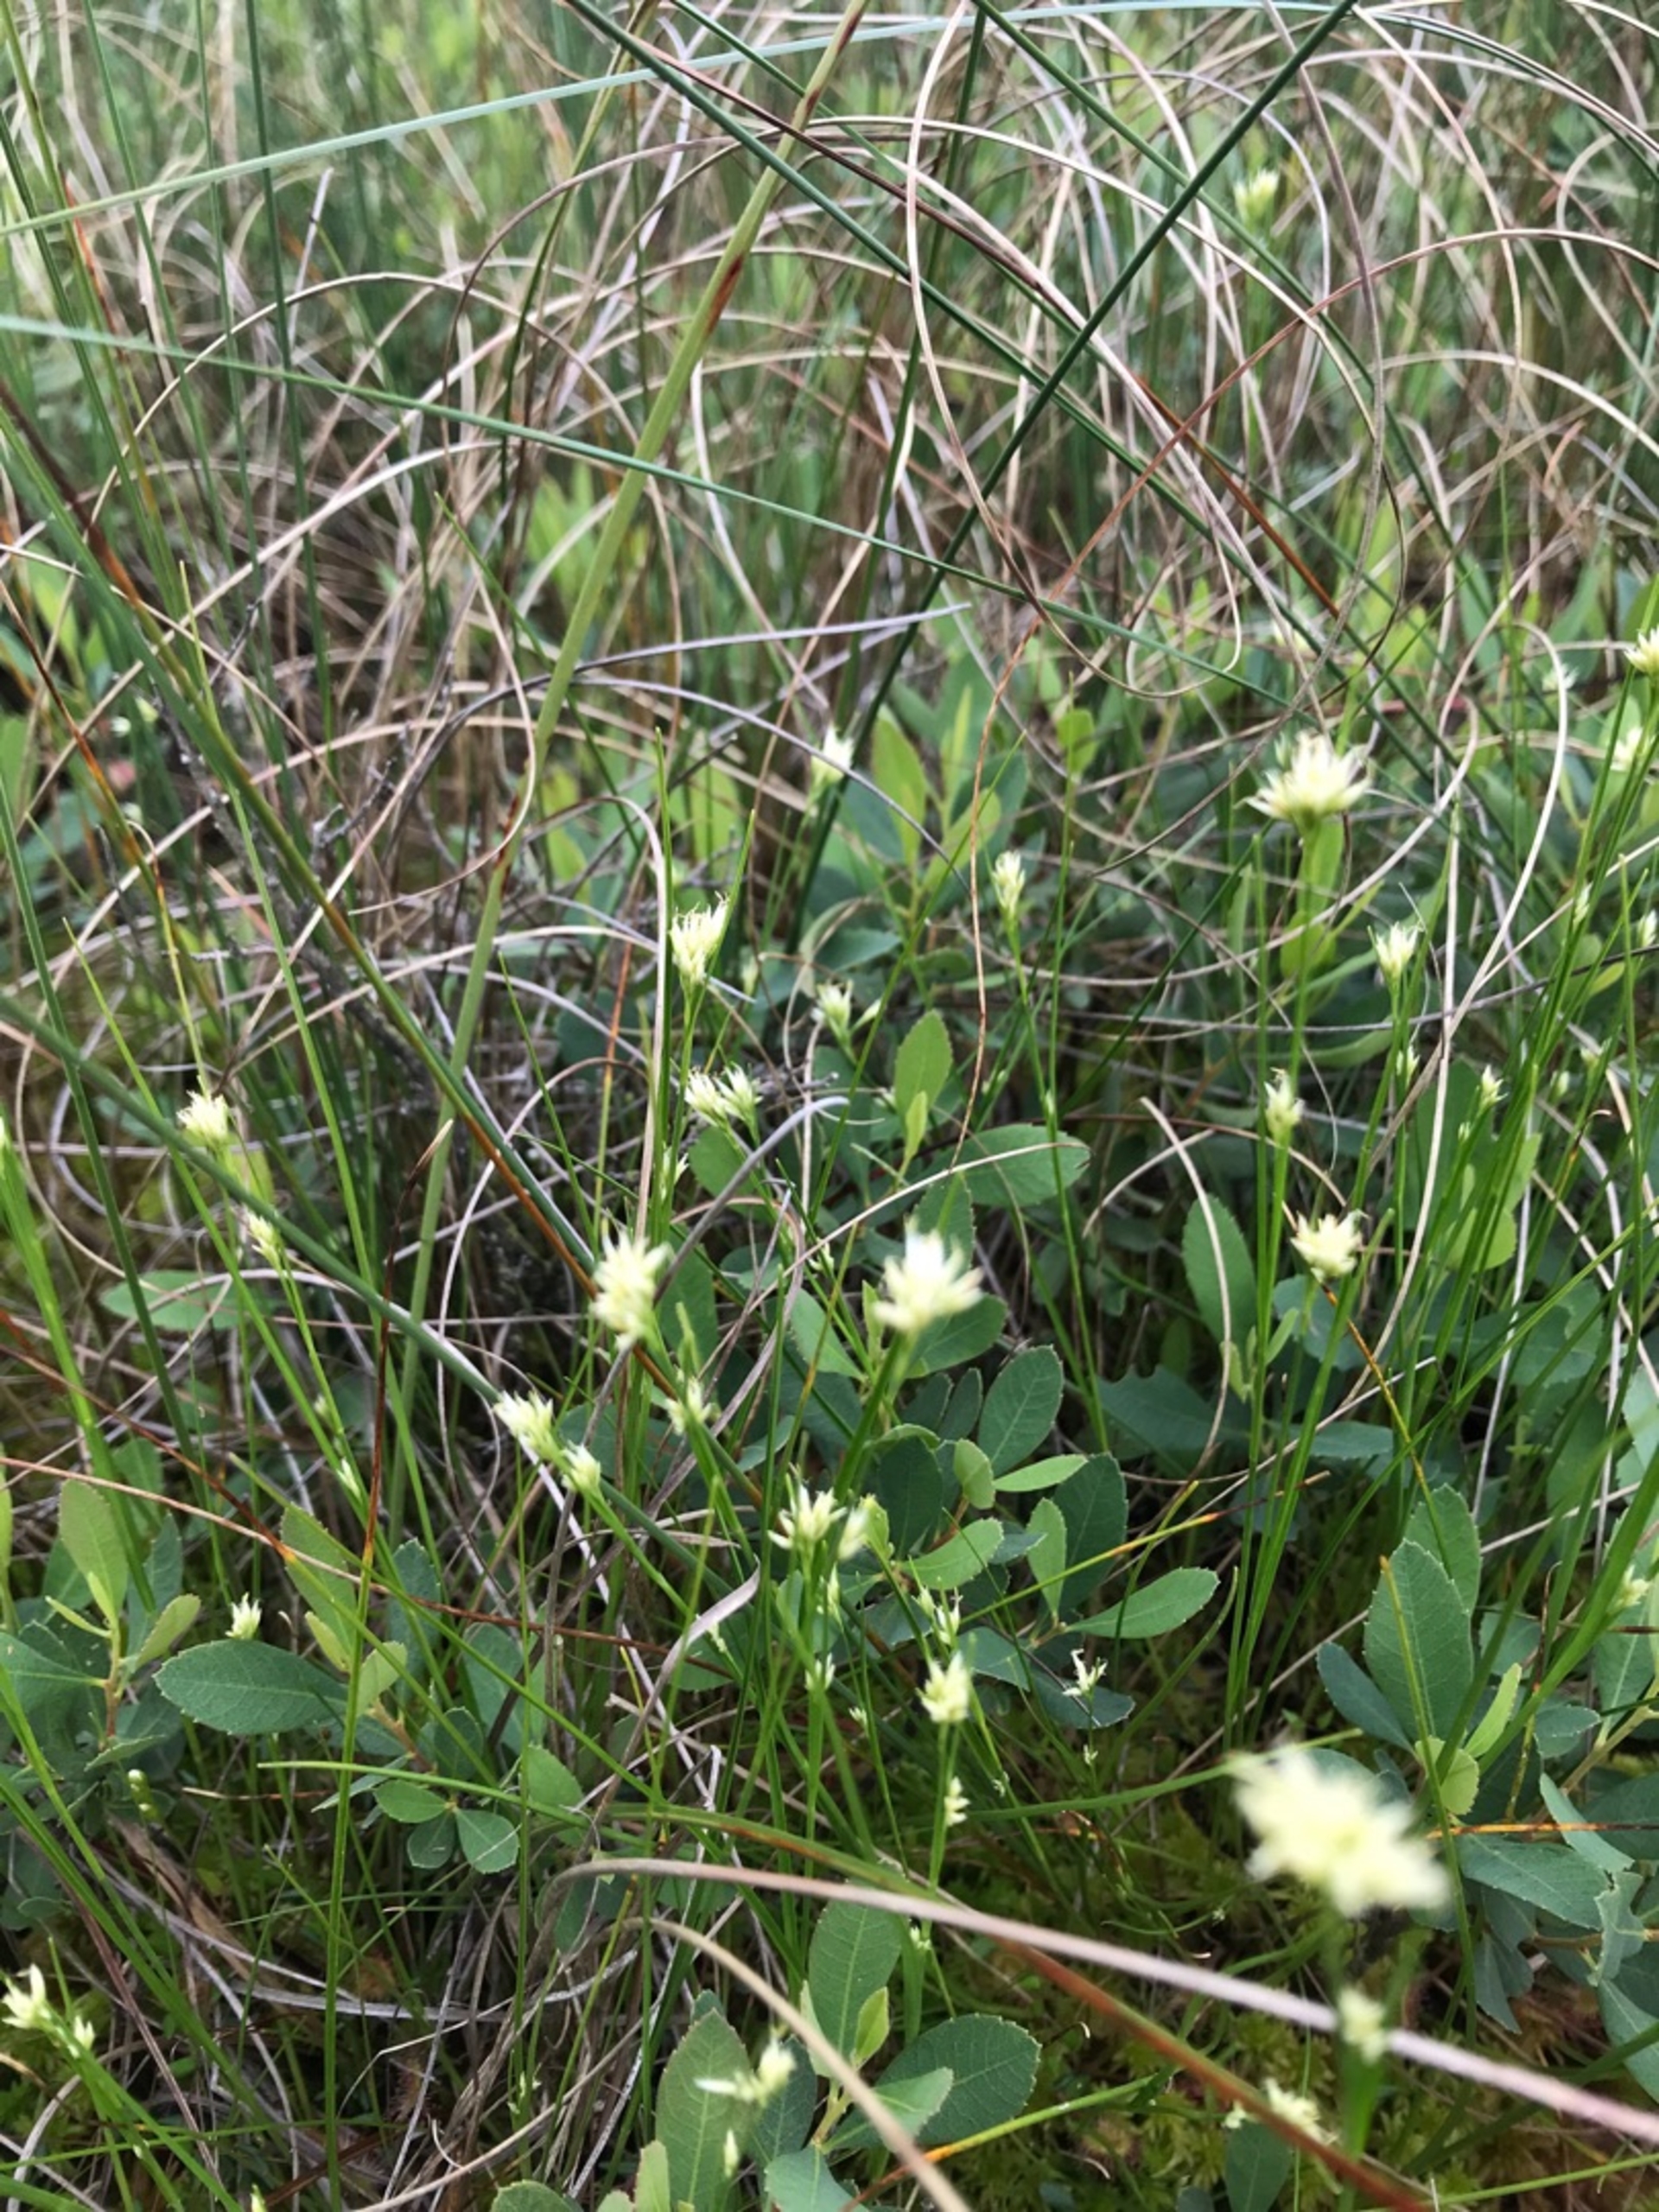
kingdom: Plantae
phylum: Tracheophyta
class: Liliopsida
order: Poales
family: Cyperaceae
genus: Rhynchospora
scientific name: Rhynchospora alba
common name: Hvid næbfrø
